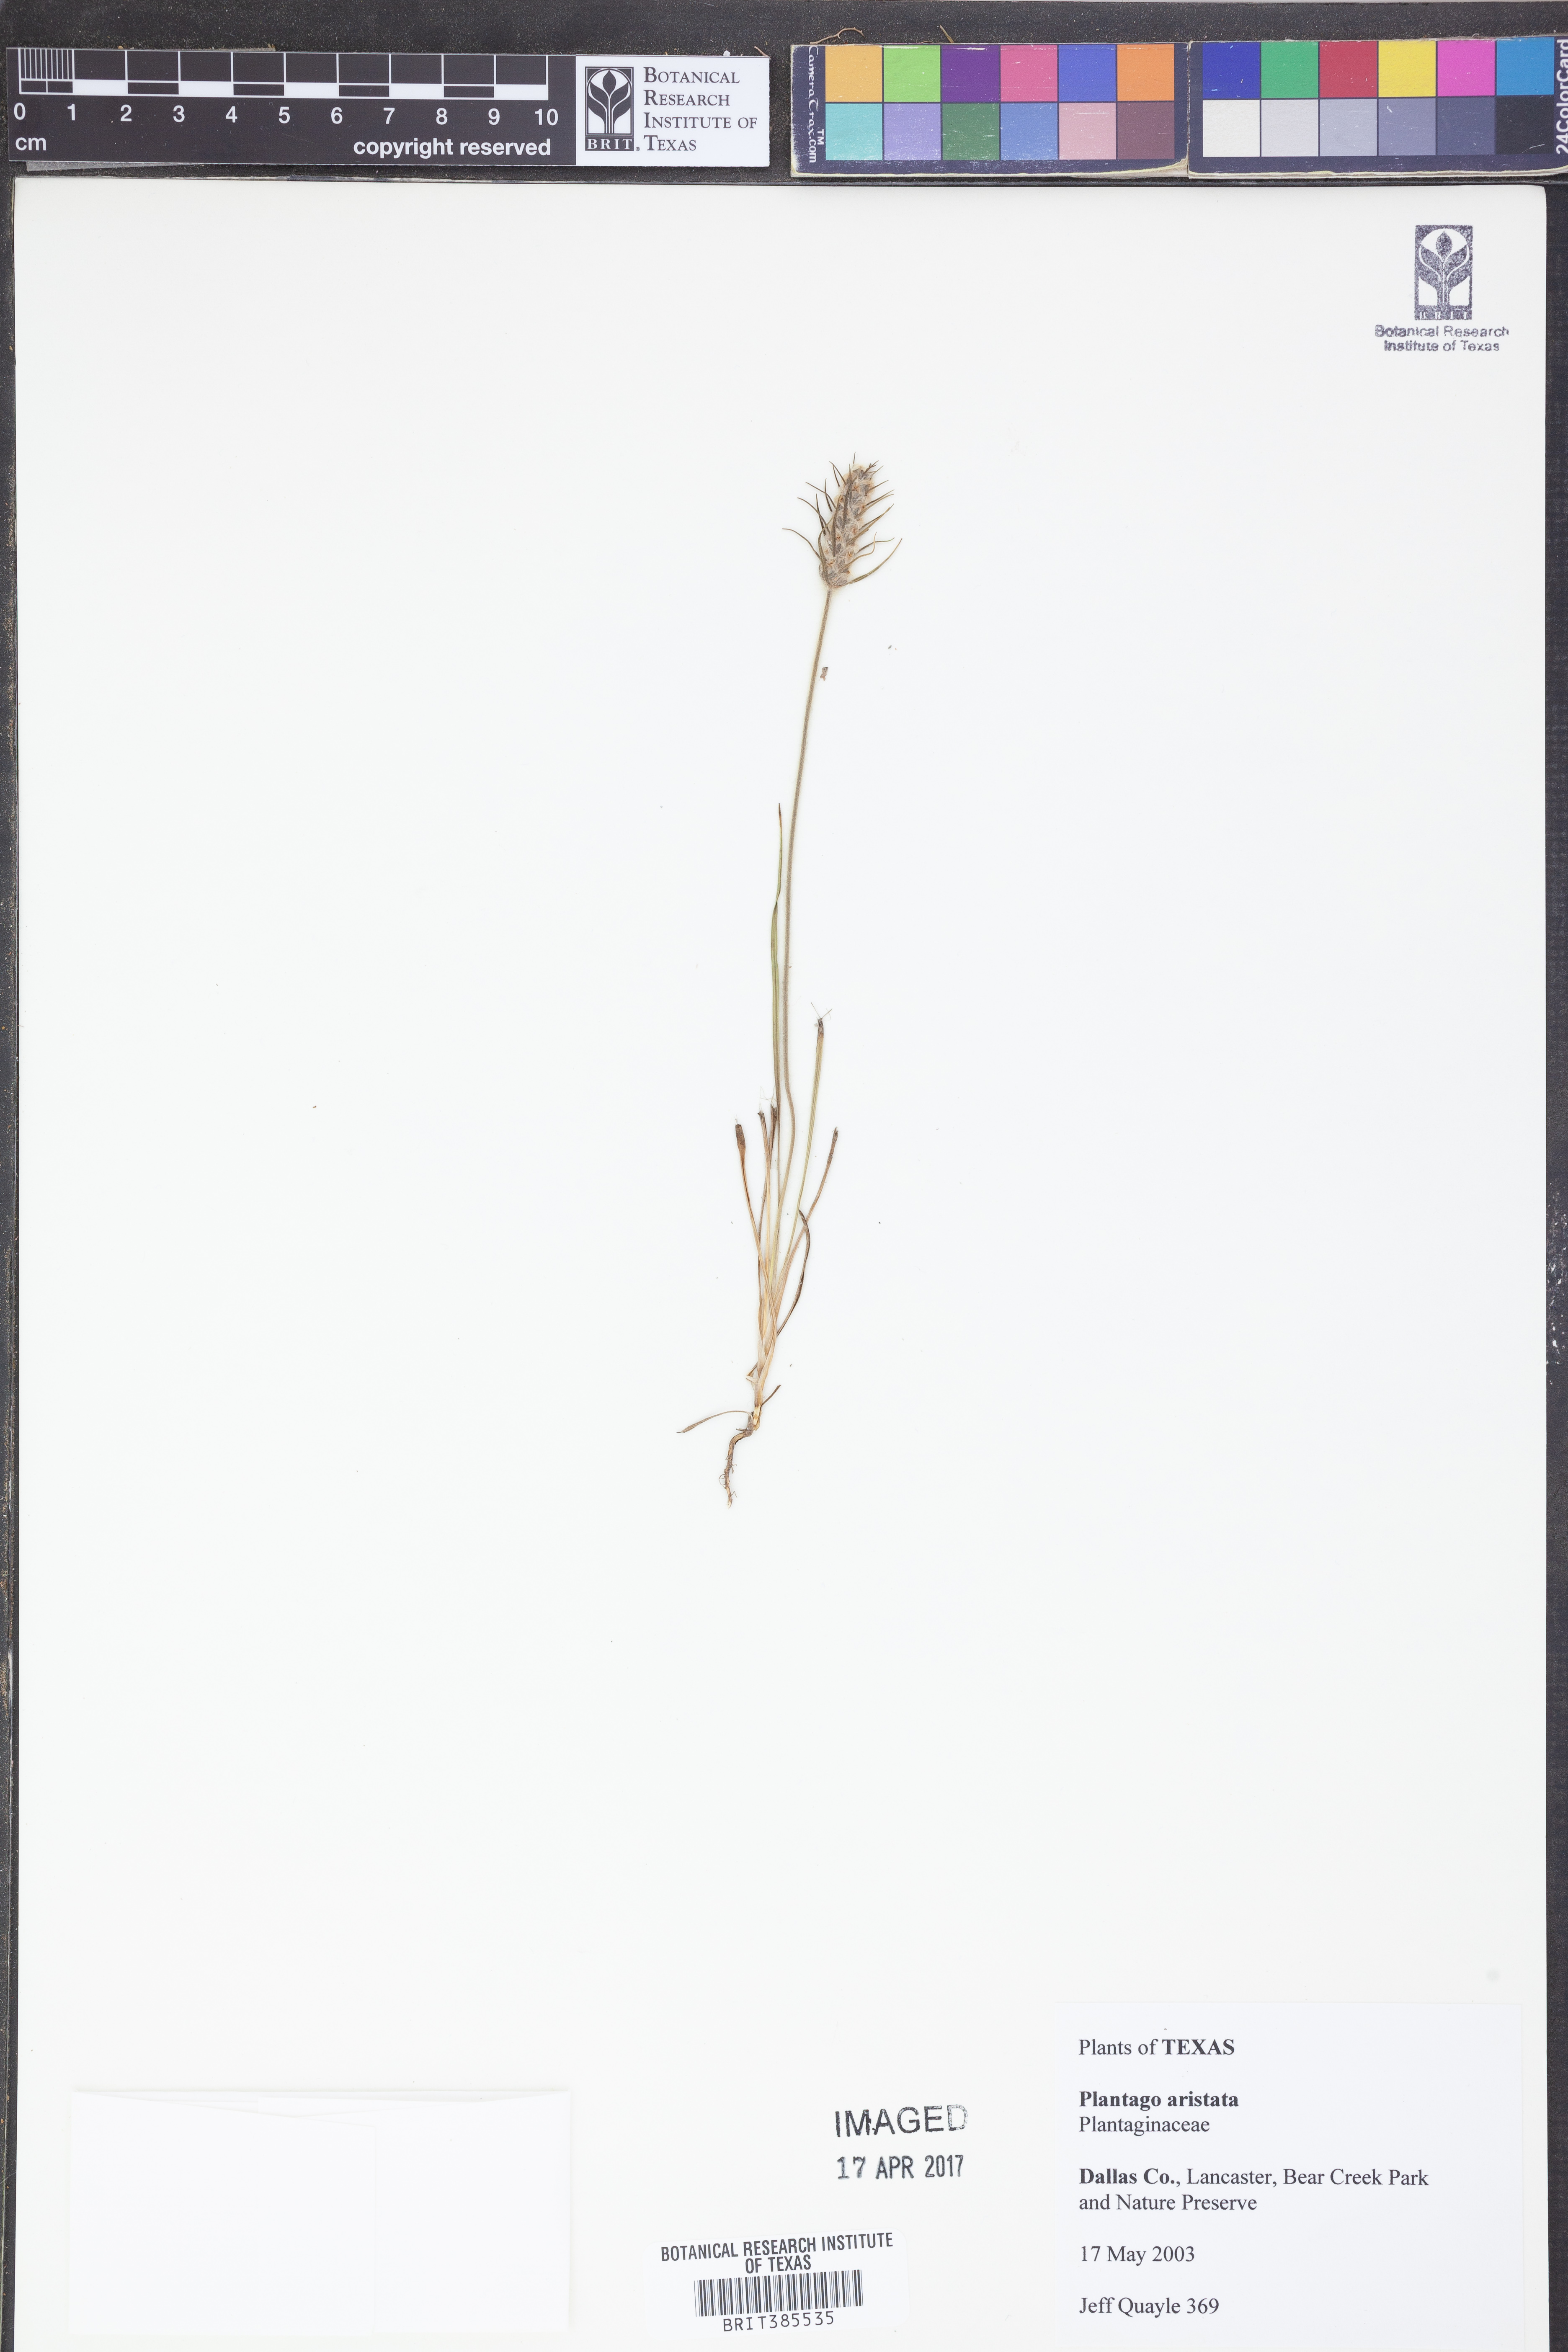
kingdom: Plantae
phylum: Tracheophyta
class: Magnoliopsida
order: Lamiales
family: Plantaginaceae
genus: Plantago
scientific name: Plantago aristata
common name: Bracted plantain
